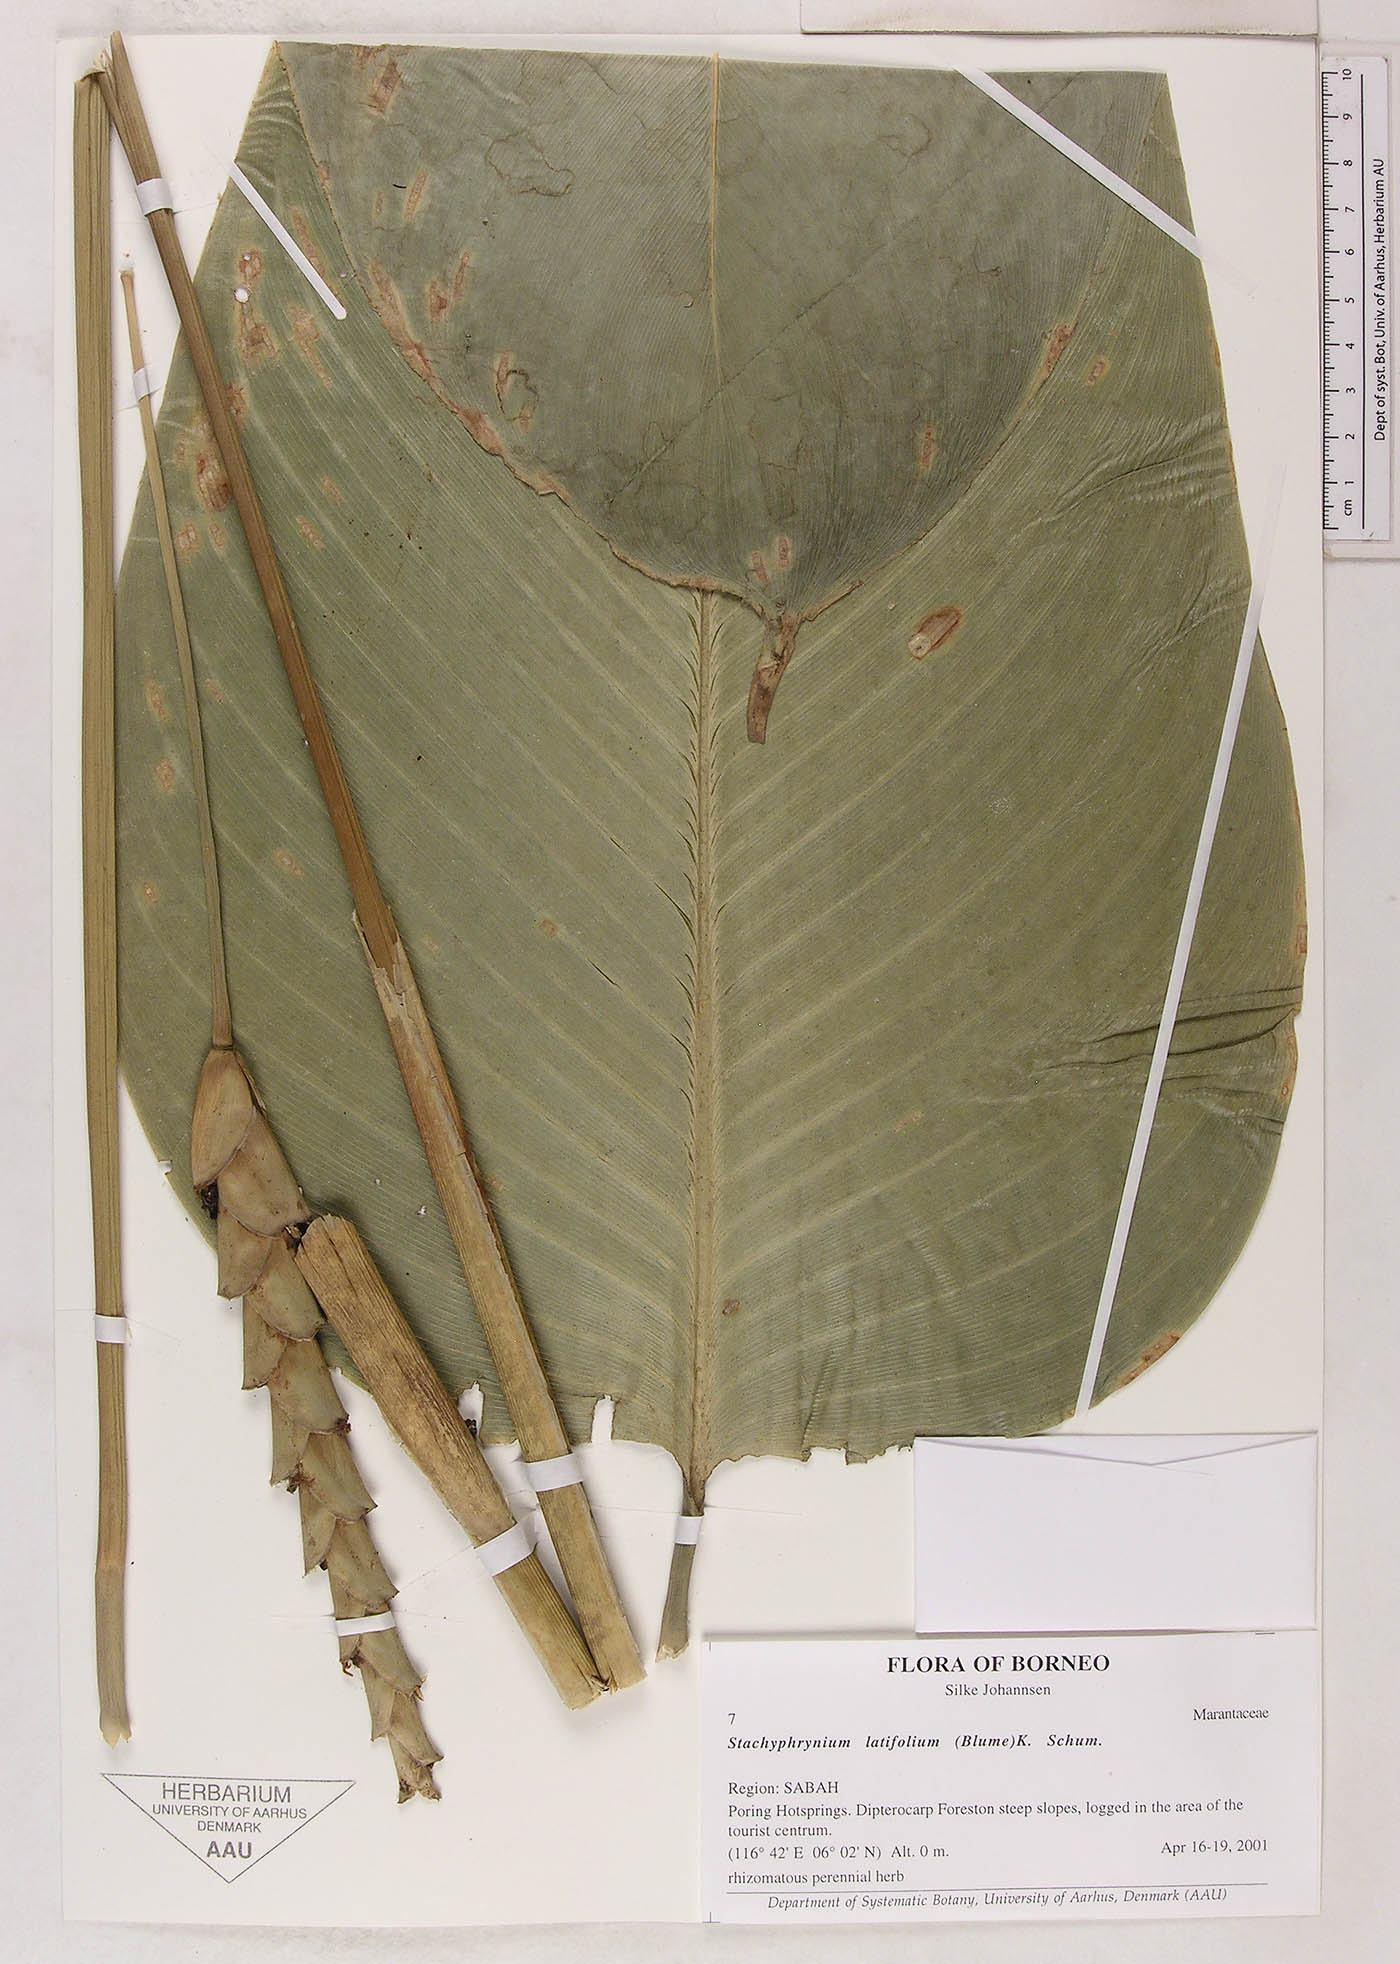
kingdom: Plantae
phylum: Tracheophyta
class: Liliopsida
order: Zingiberales
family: Marantaceae
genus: Stachyphrynium
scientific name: Stachyphrynium latifolium
